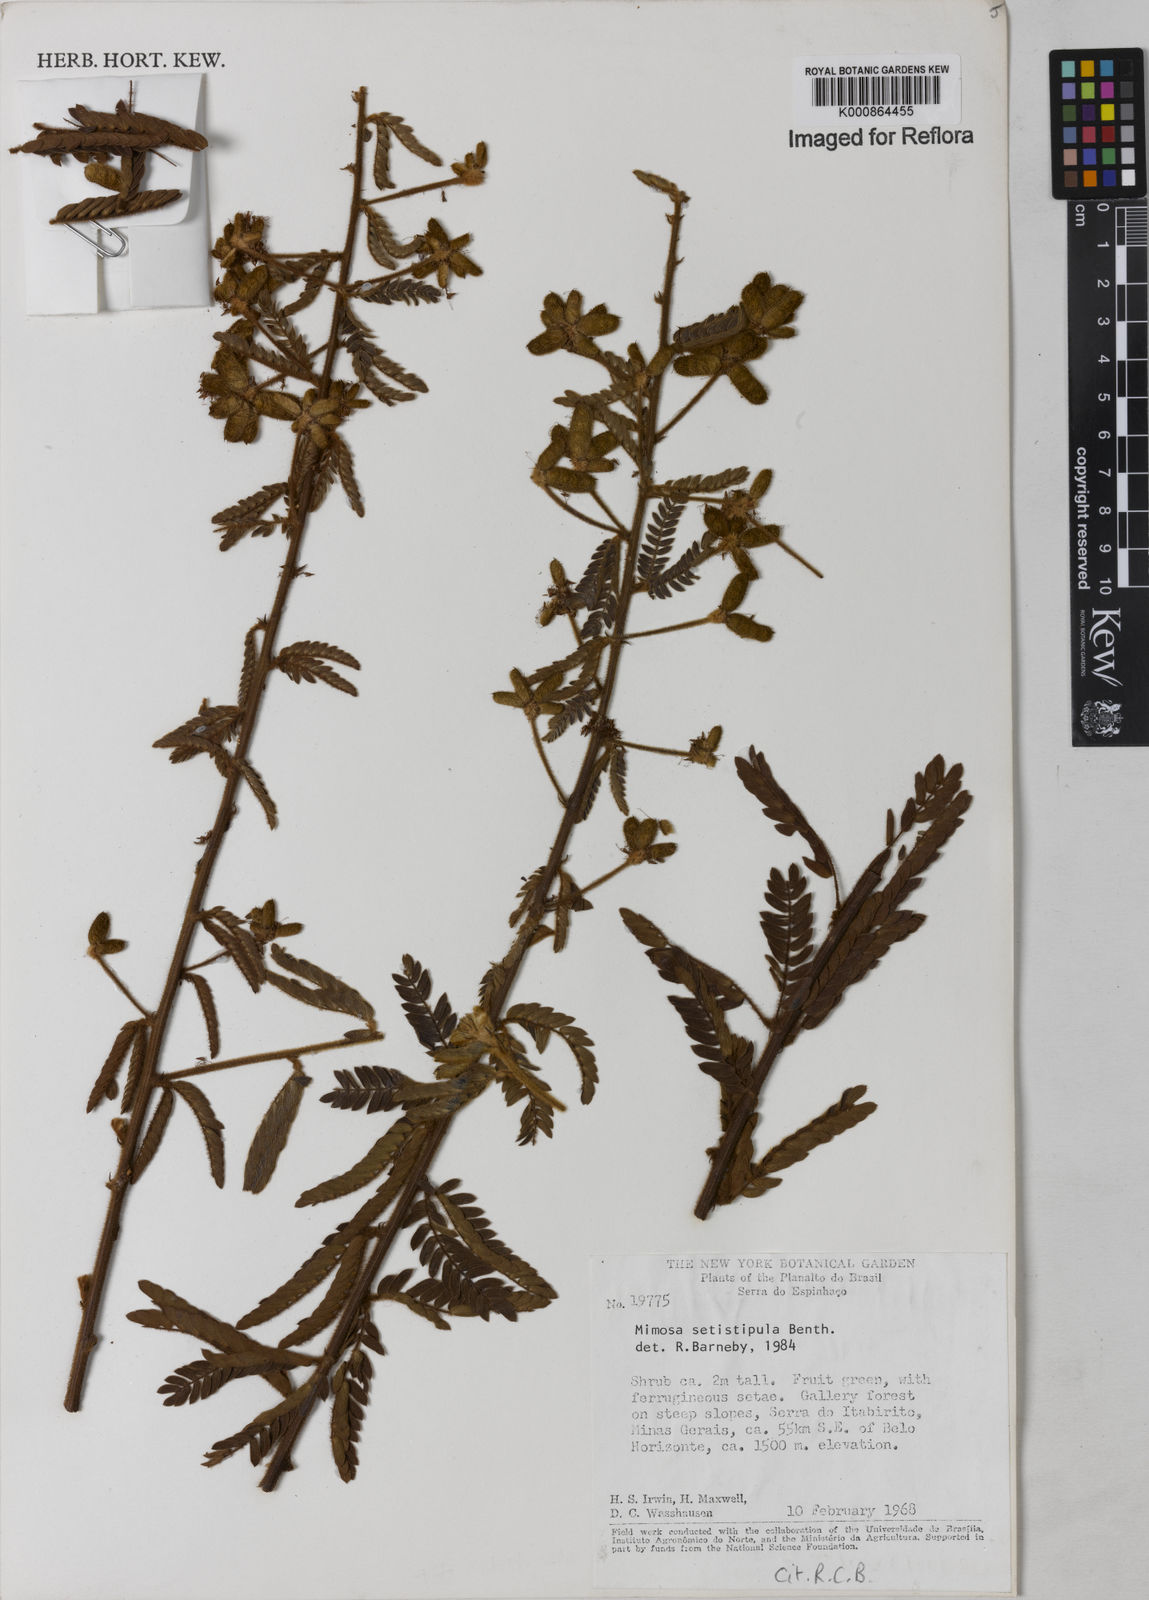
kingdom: Plantae
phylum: Tracheophyta
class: Magnoliopsida
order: Fabales
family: Fabaceae
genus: Mimosa
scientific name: Mimosa setistipula
